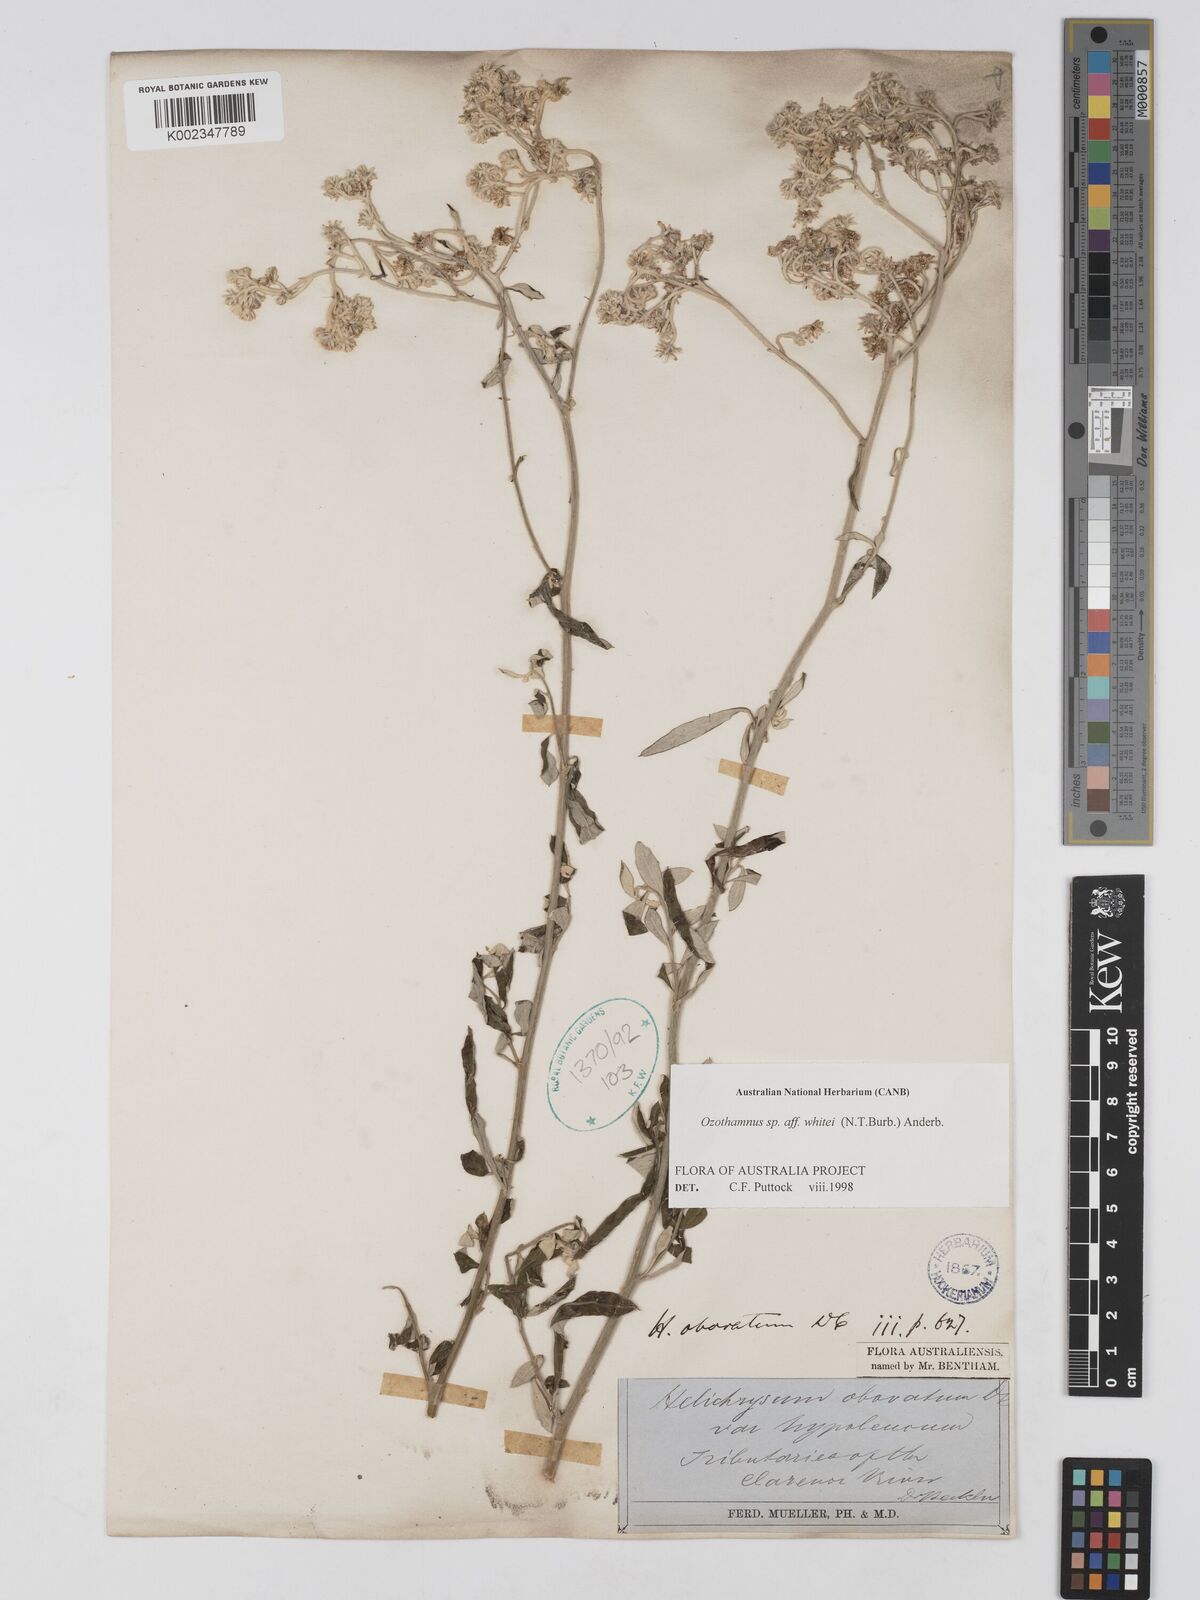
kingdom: Plantae
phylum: Tracheophyta
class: Magnoliopsida
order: Asterales
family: Asteraceae
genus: Ozothamnus
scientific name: Ozothamnus whitei
